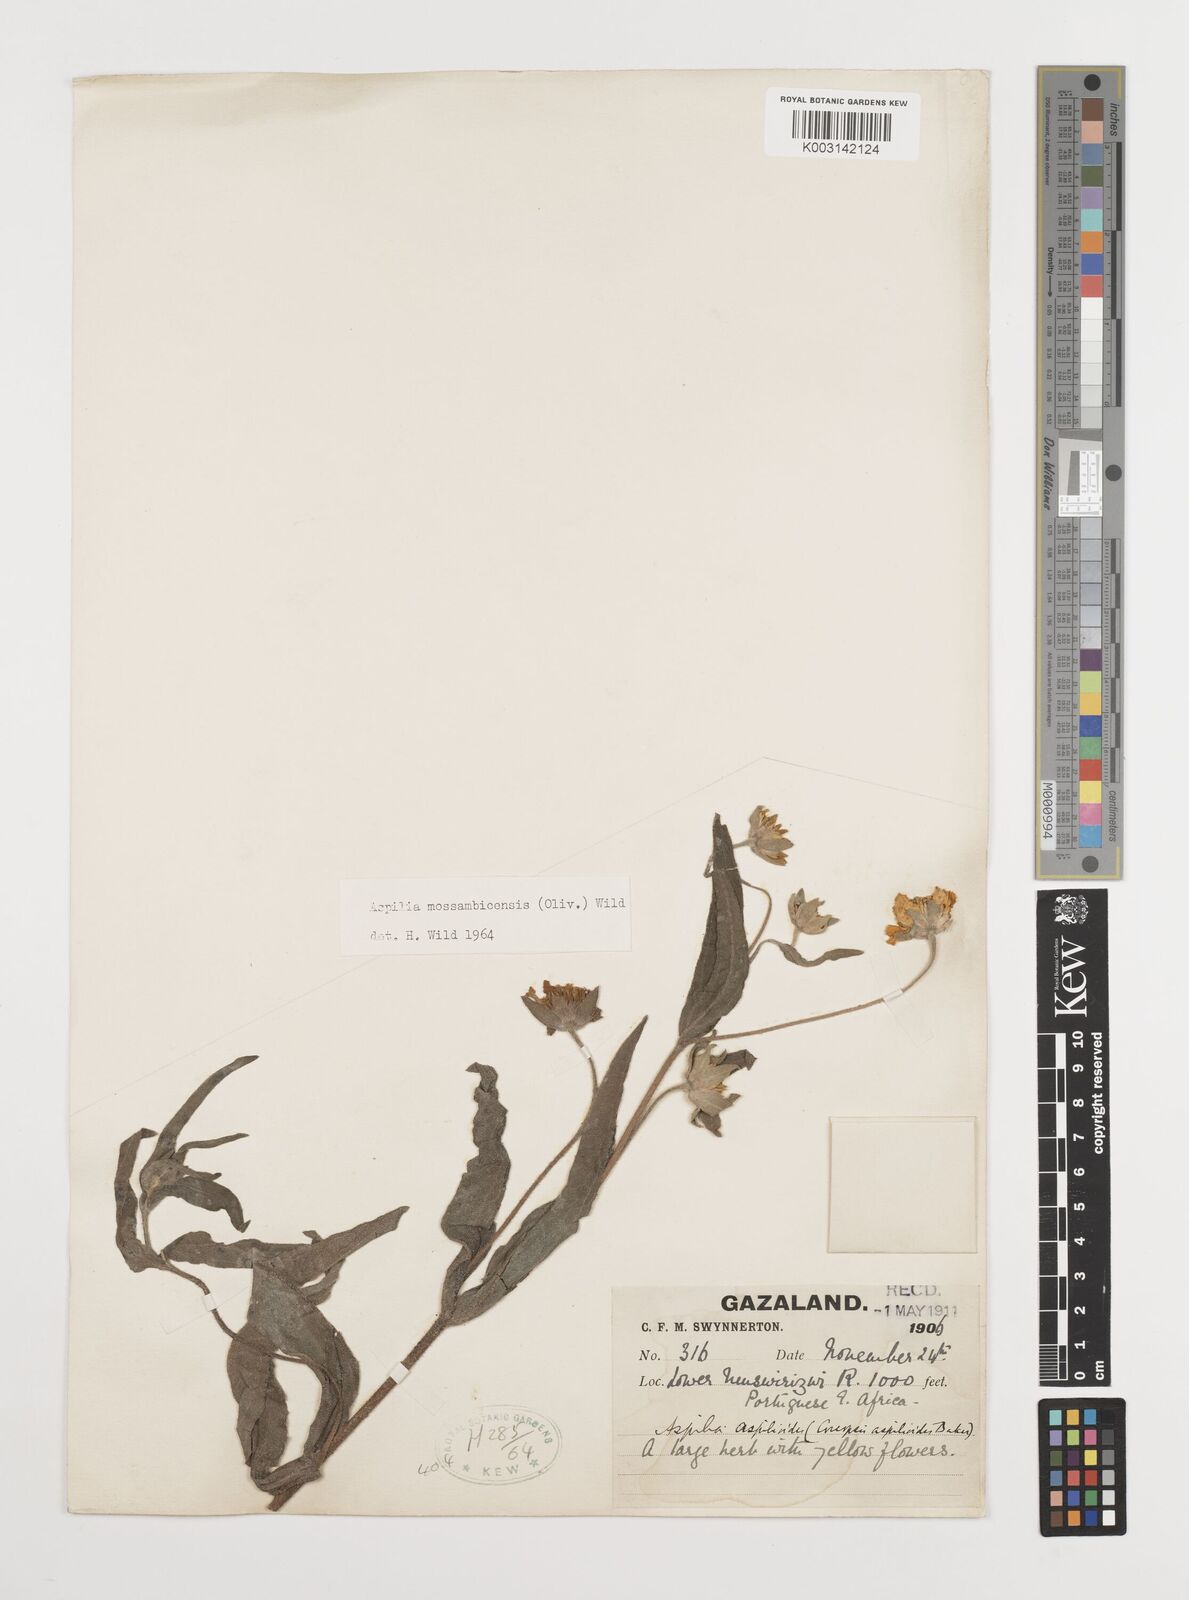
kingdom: Plantae
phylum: Tracheophyta
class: Magnoliopsida
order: Asterales
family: Asteraceae
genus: Aspilia
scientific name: Aspilia mossambicensis
